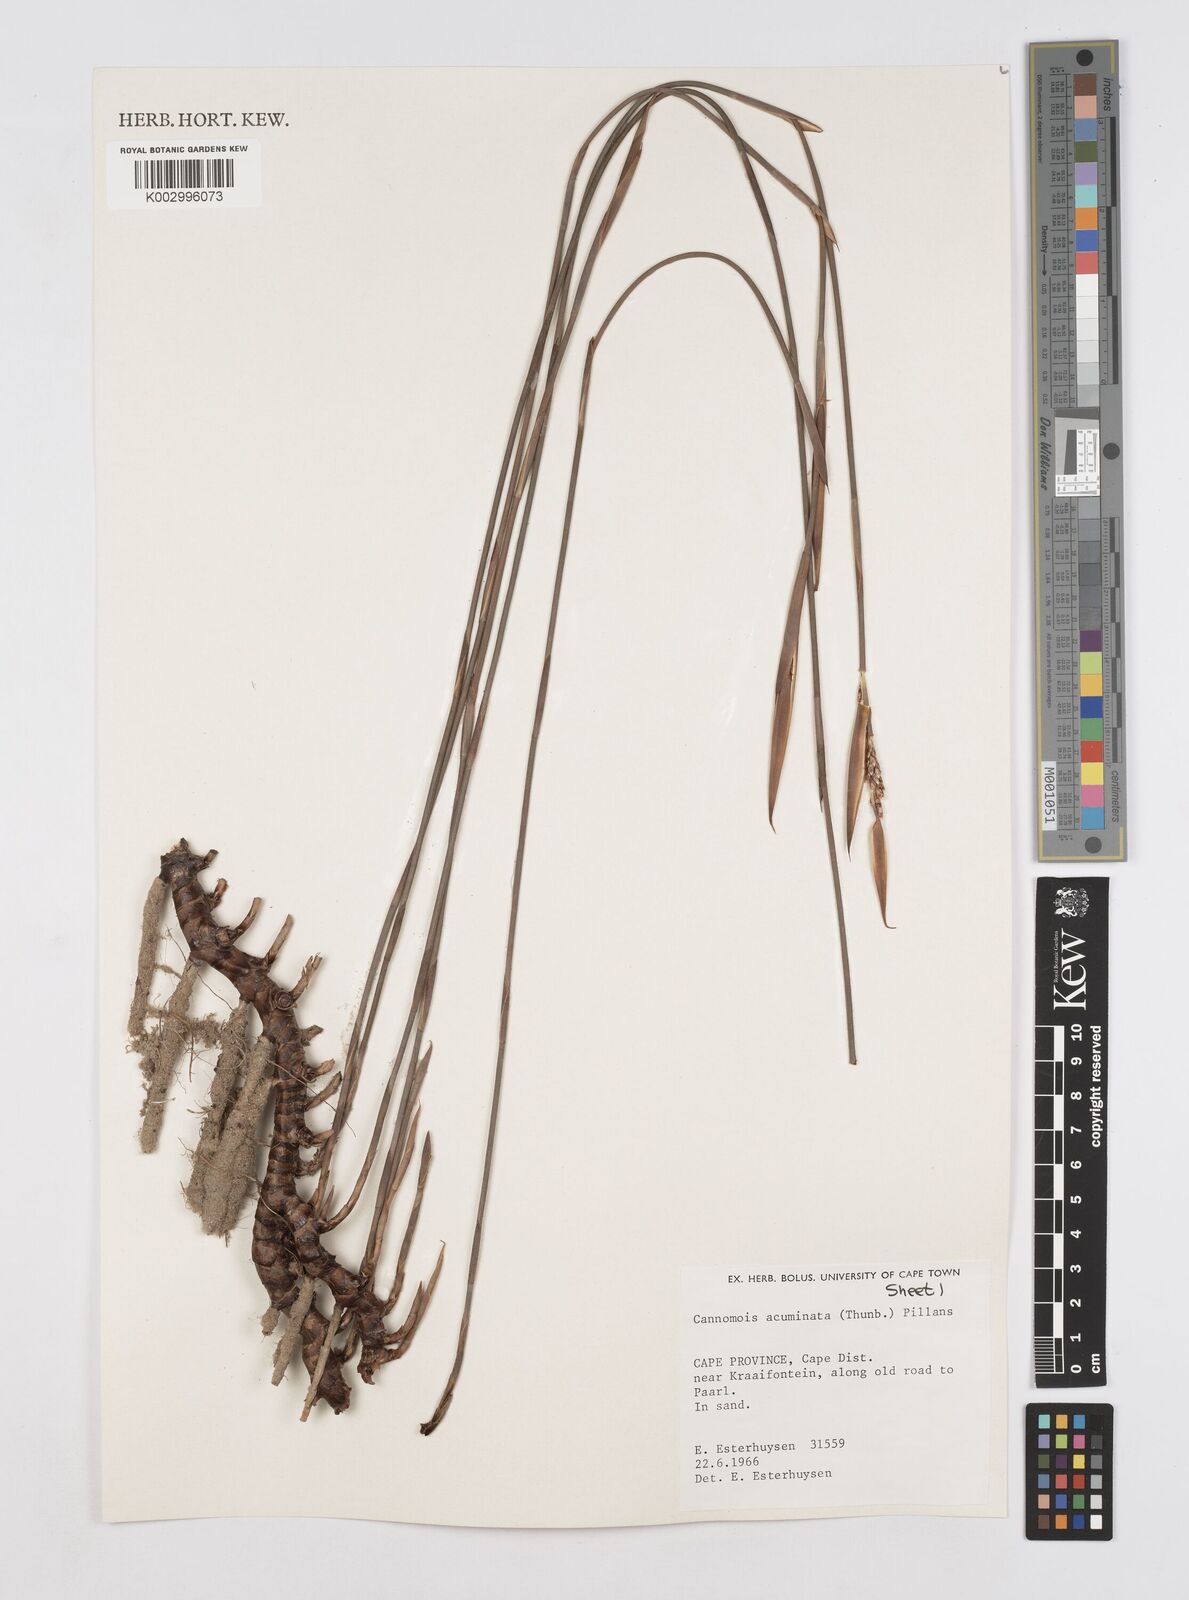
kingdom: Plantae
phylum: Tracheophyta
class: Liliopsida
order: Poales
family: Restionaceae
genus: Cannomois
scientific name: Cannomois parviflora
